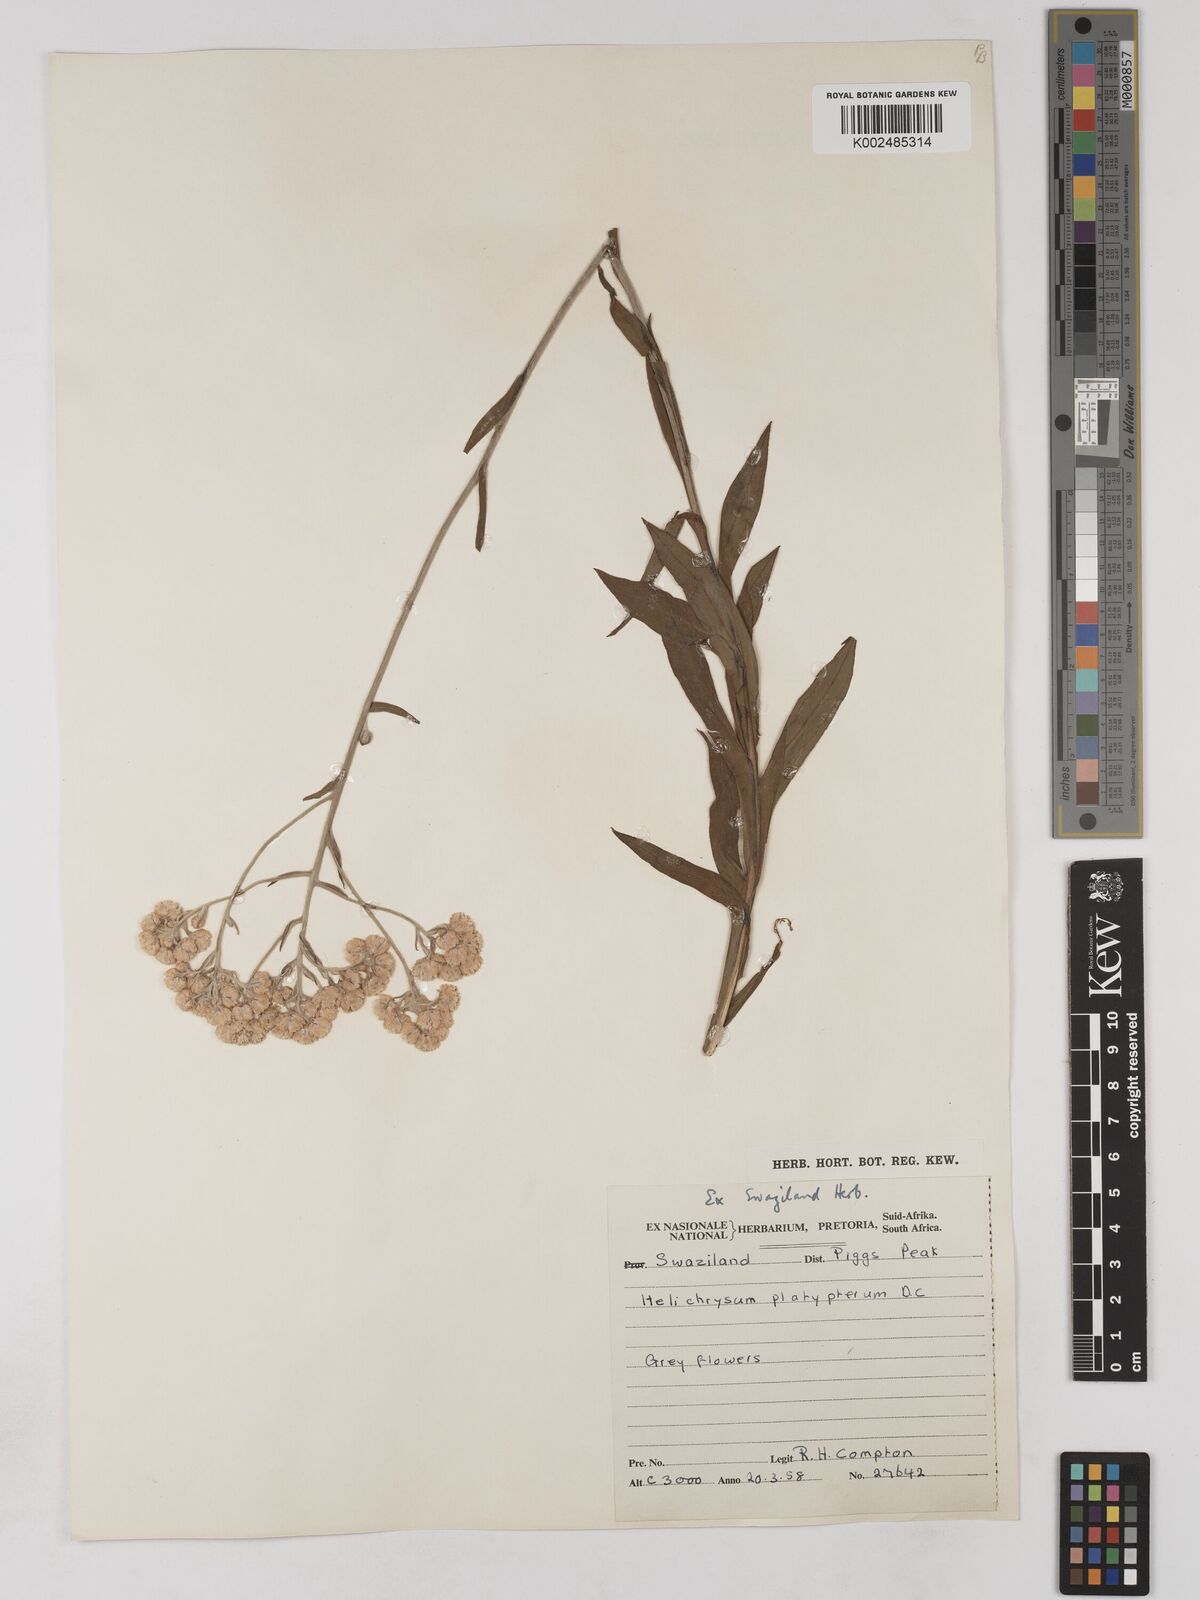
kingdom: Plantae
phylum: Tracheophyta
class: Magnoliopsida
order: Asterales
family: Asteraceae
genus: Helichrysum
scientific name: Helichrysum platypterum
